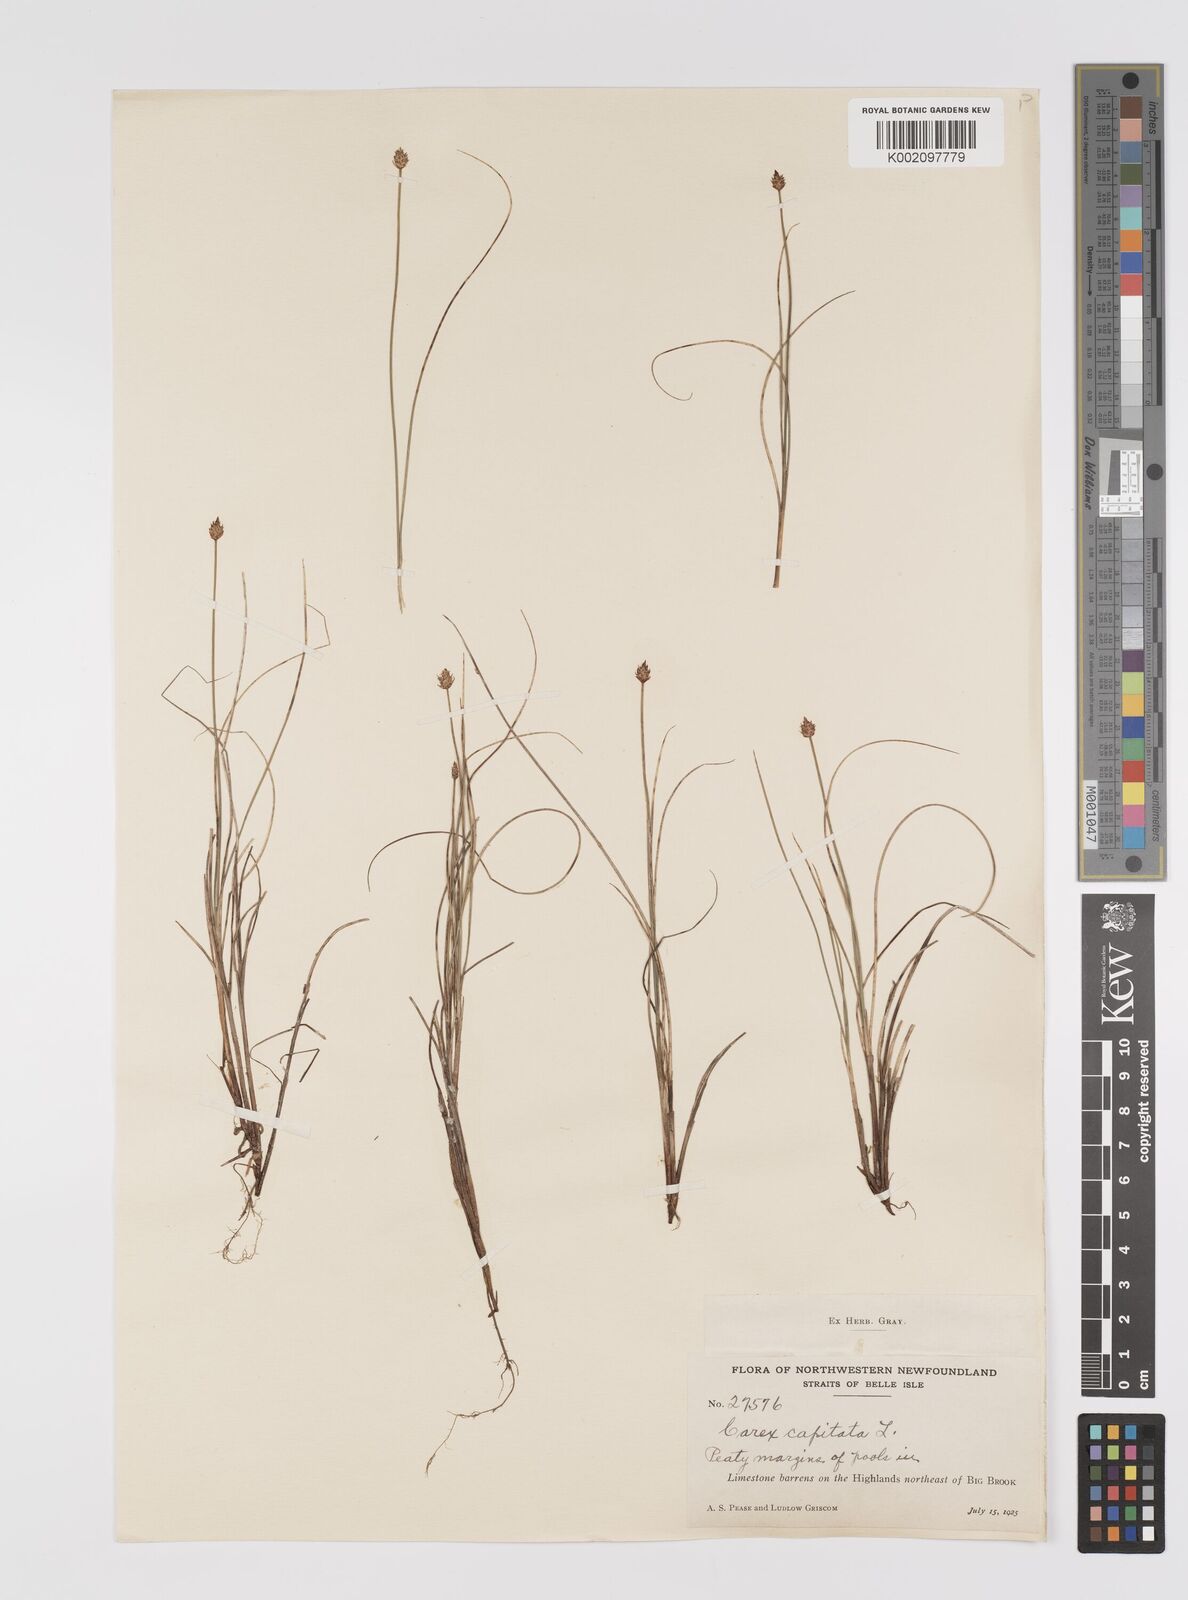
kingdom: Plantae
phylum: Tracheophyta
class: Liliopsida
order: Poales
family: Cyperaceae
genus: Carex
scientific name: Carex capitata
